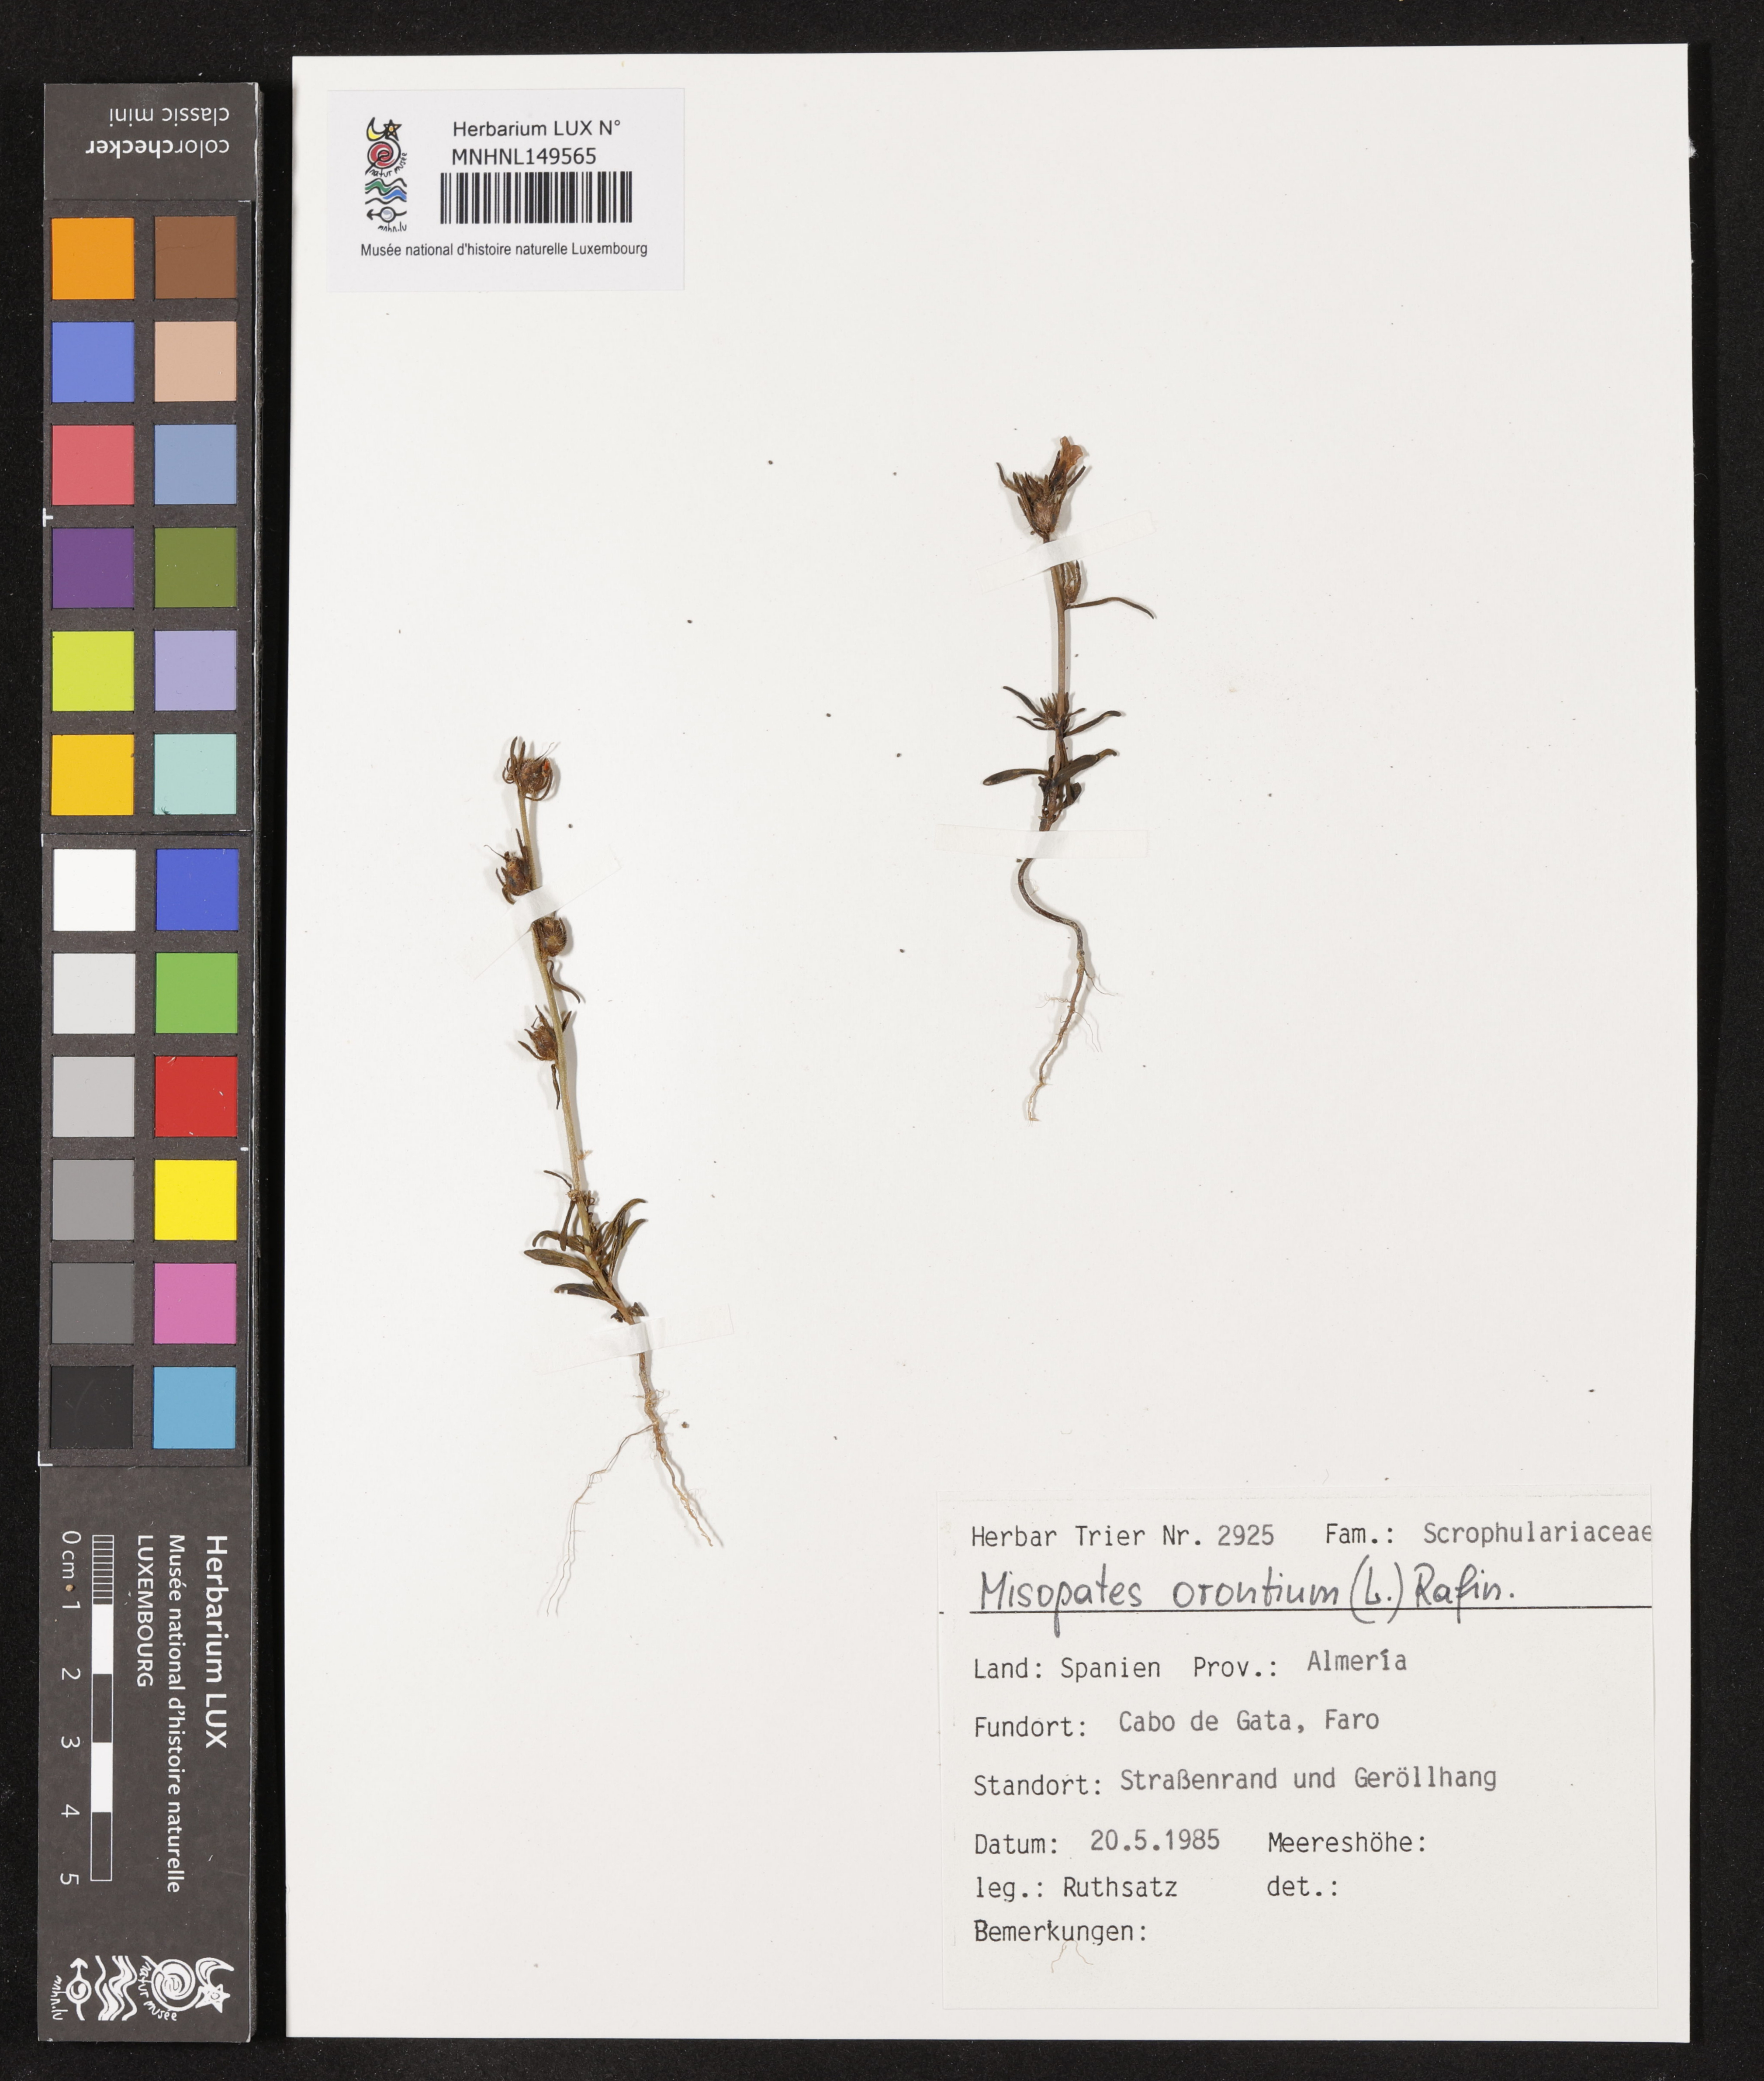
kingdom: Plantae
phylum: Tracheophyta
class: Magnoliopsida
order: Lamiales
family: Plantaginaceae
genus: Misopates
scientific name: Misopates orontium
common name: Weasel's-snout
